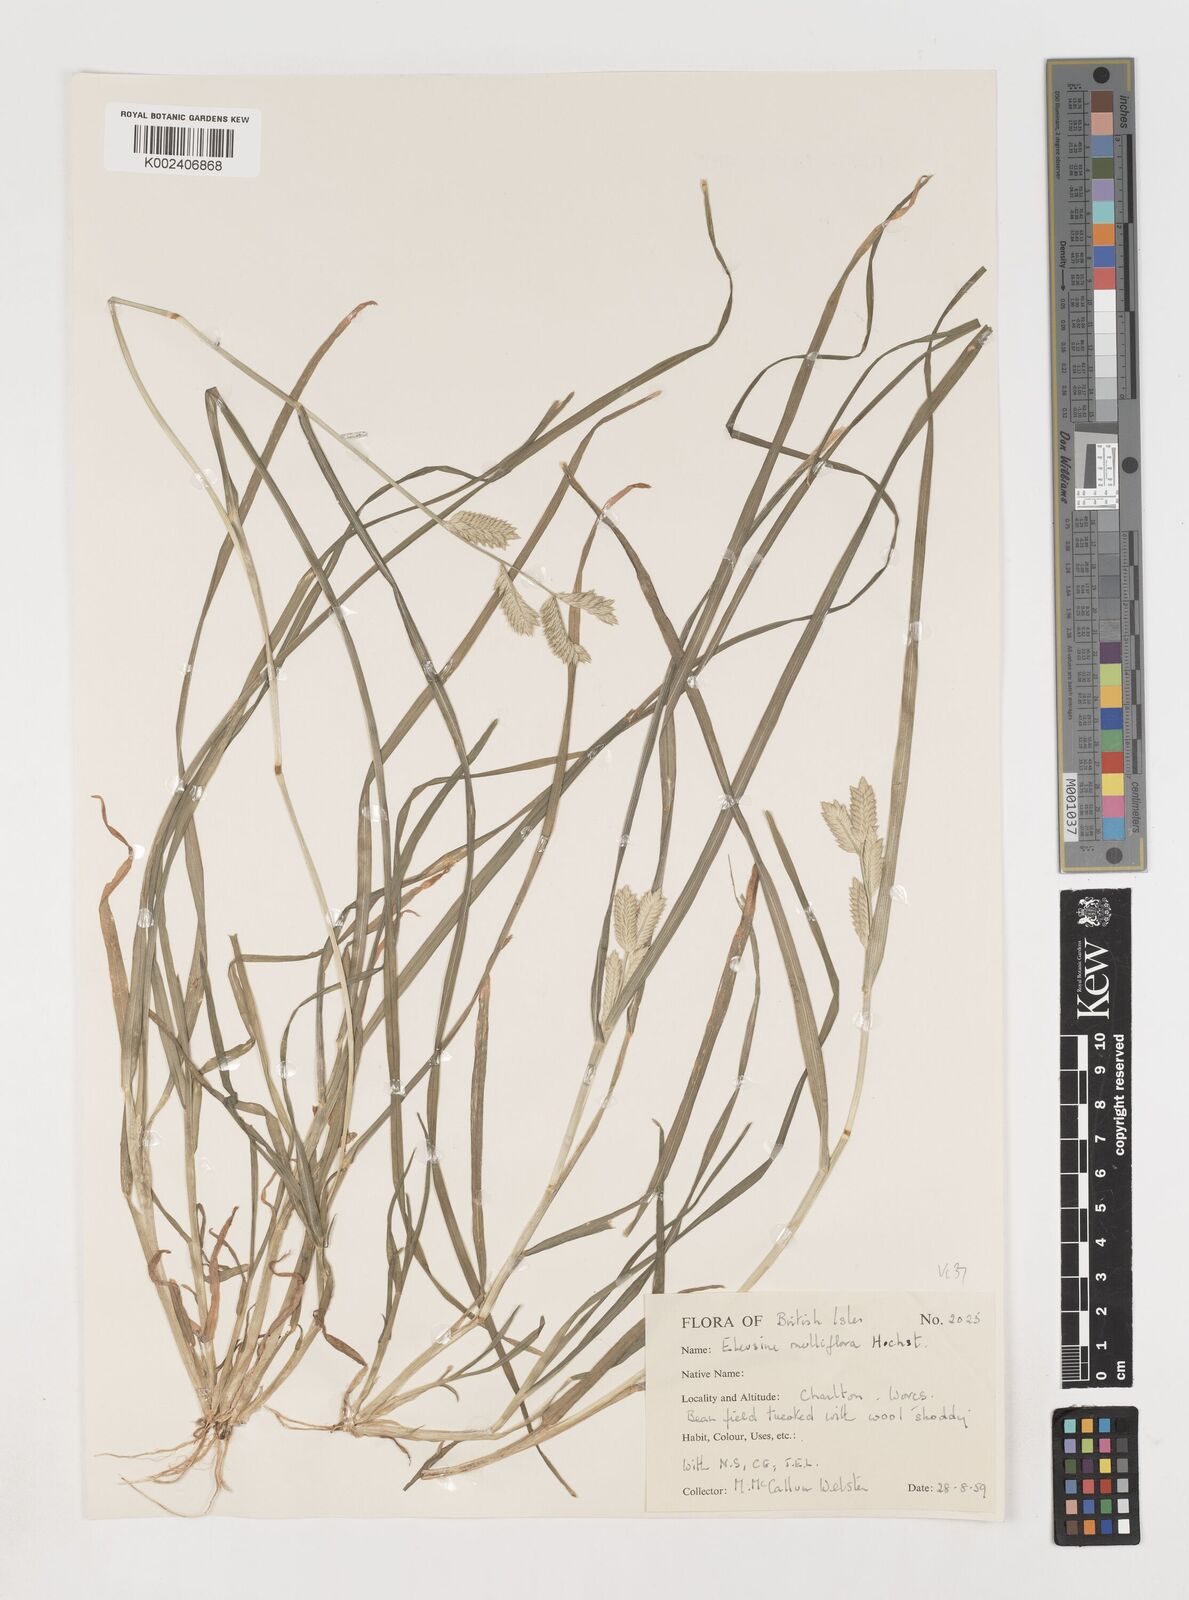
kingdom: Plantae
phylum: Tracheophyta
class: Liliopsida
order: Poales
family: Poaceae
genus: Eleusine
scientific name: Eleusine multiflora
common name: Fat-spiked yard-grass
